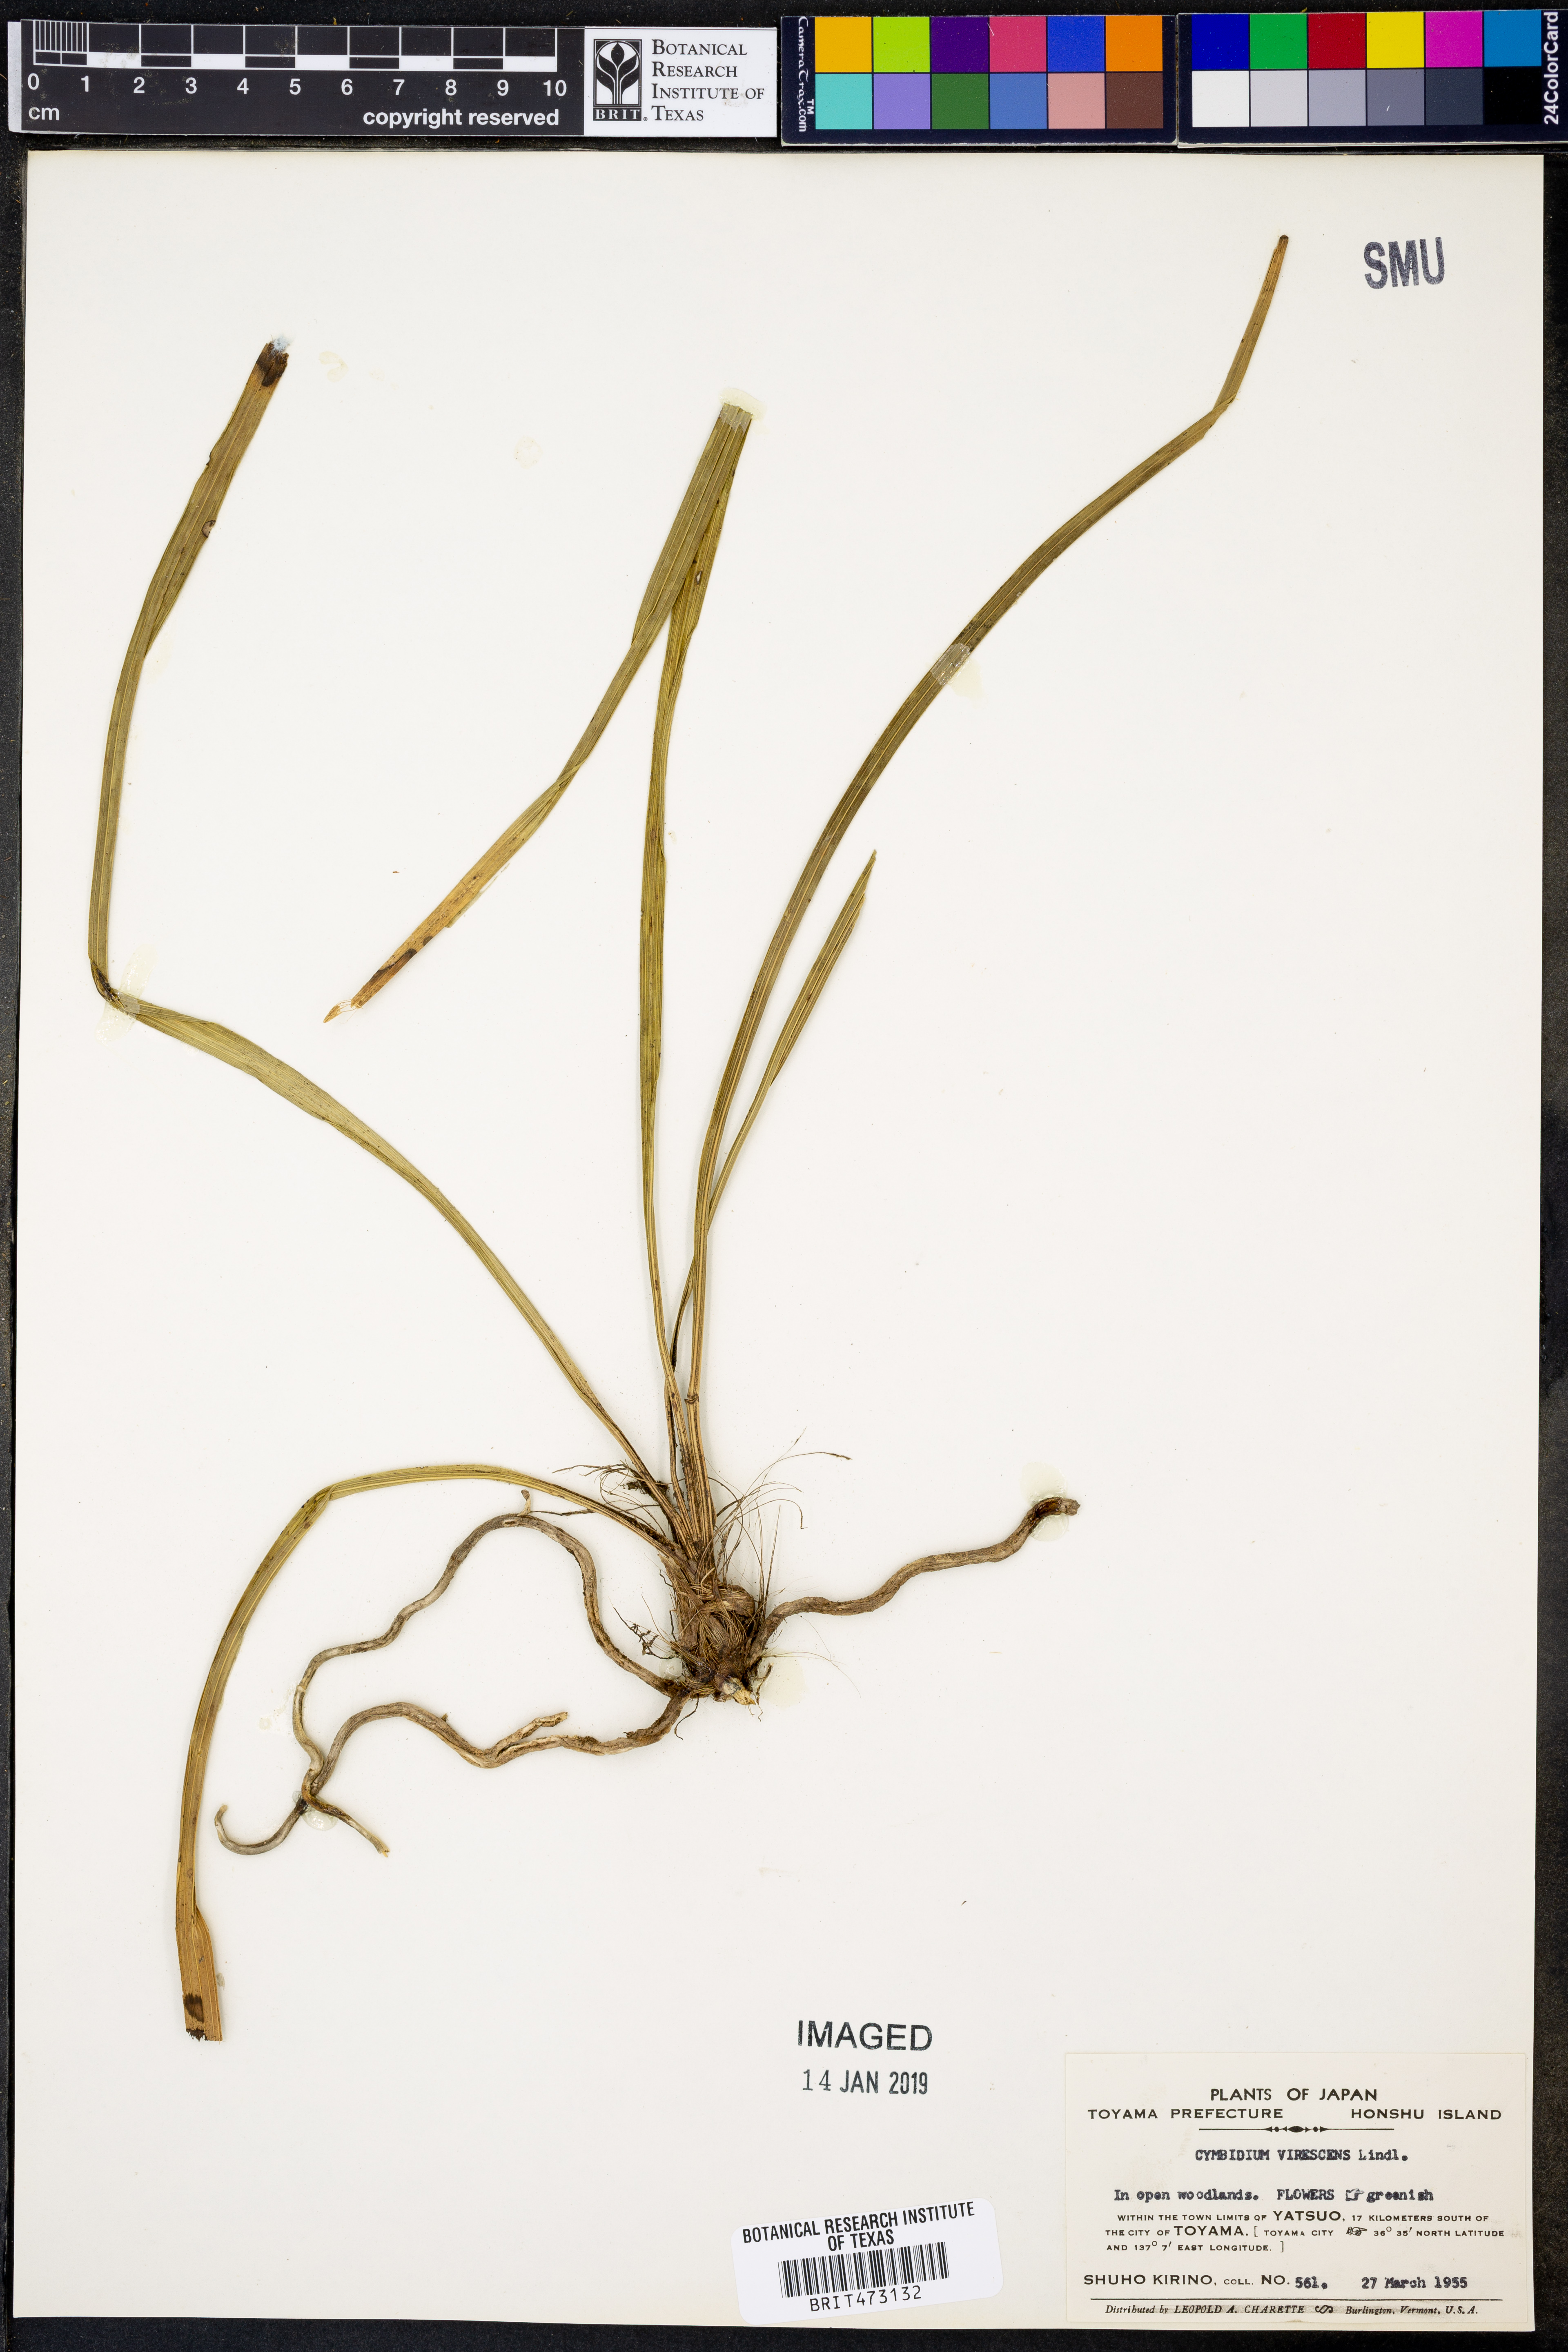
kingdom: Plantae
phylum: Tracheophyta
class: Liliopsida
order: Asparagales
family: Orchidaceae
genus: Chloraea
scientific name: Chloraea piquichen
